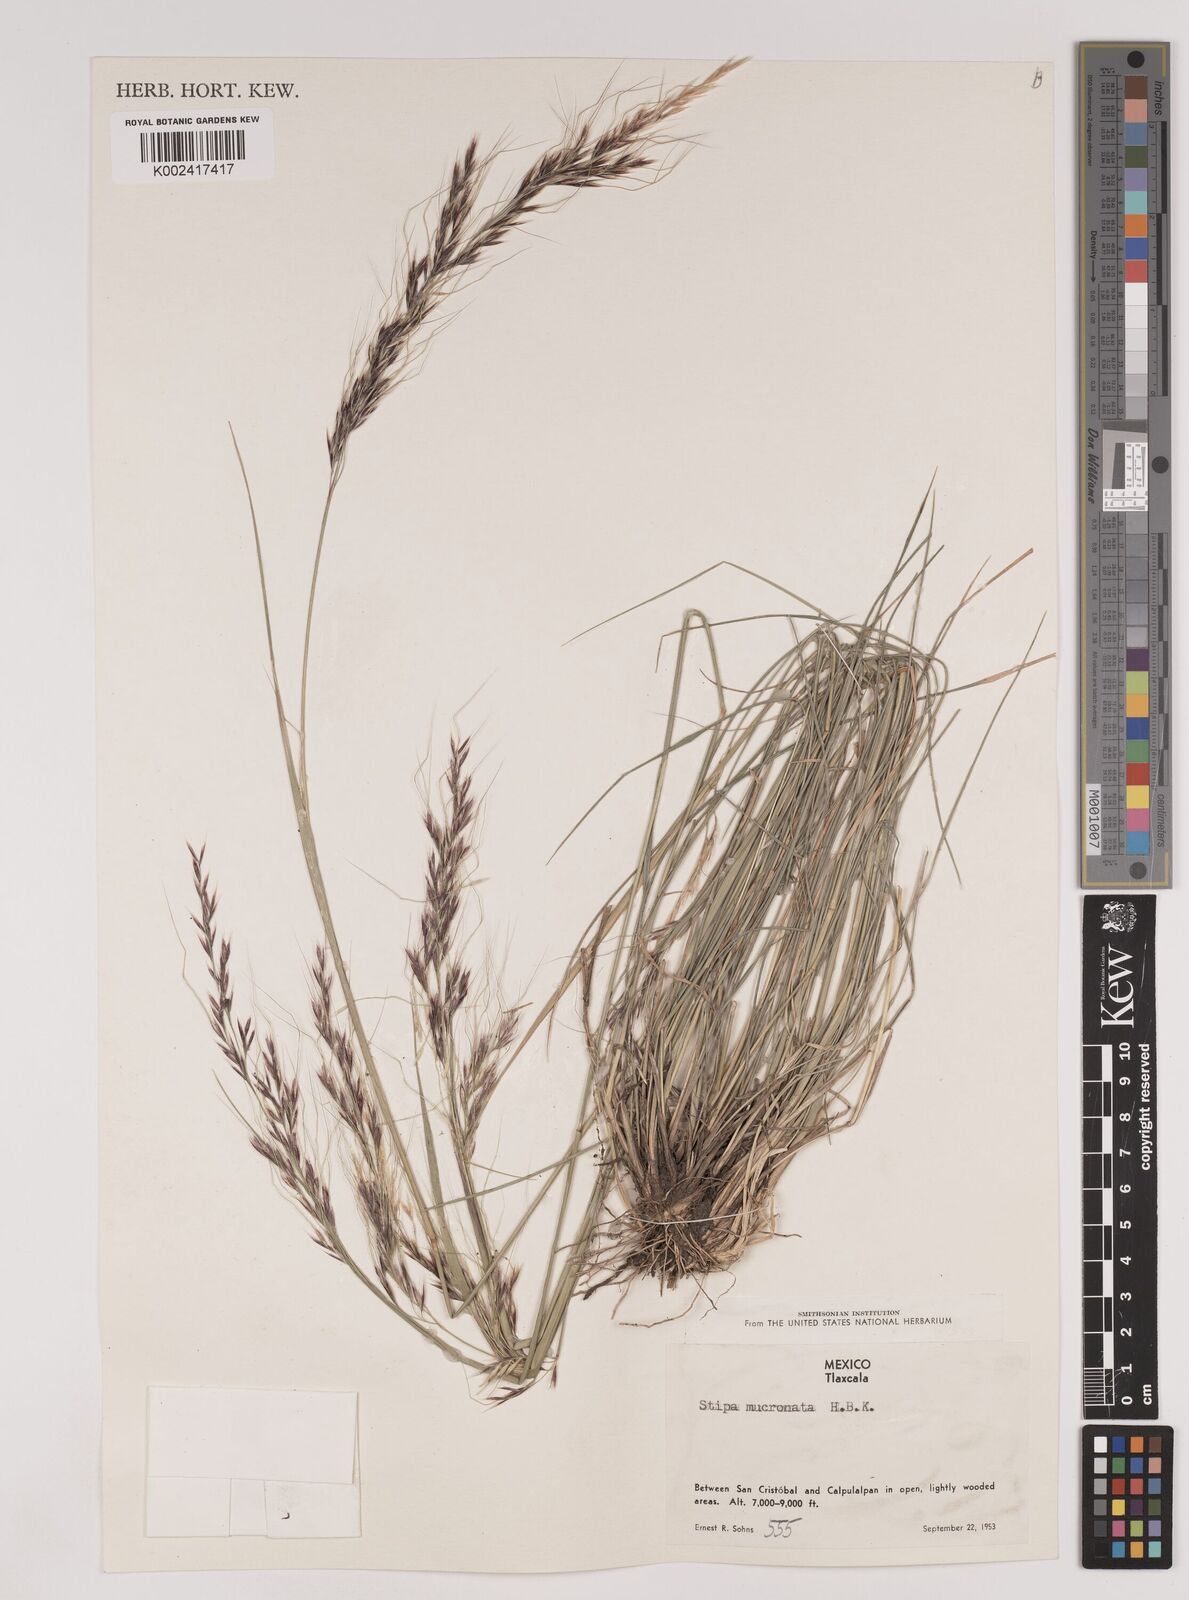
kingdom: Plantae
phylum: Tracheophyta
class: Liliopsida
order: Poales
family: Poaceae
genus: Nassella
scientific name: Nassella mucronata
